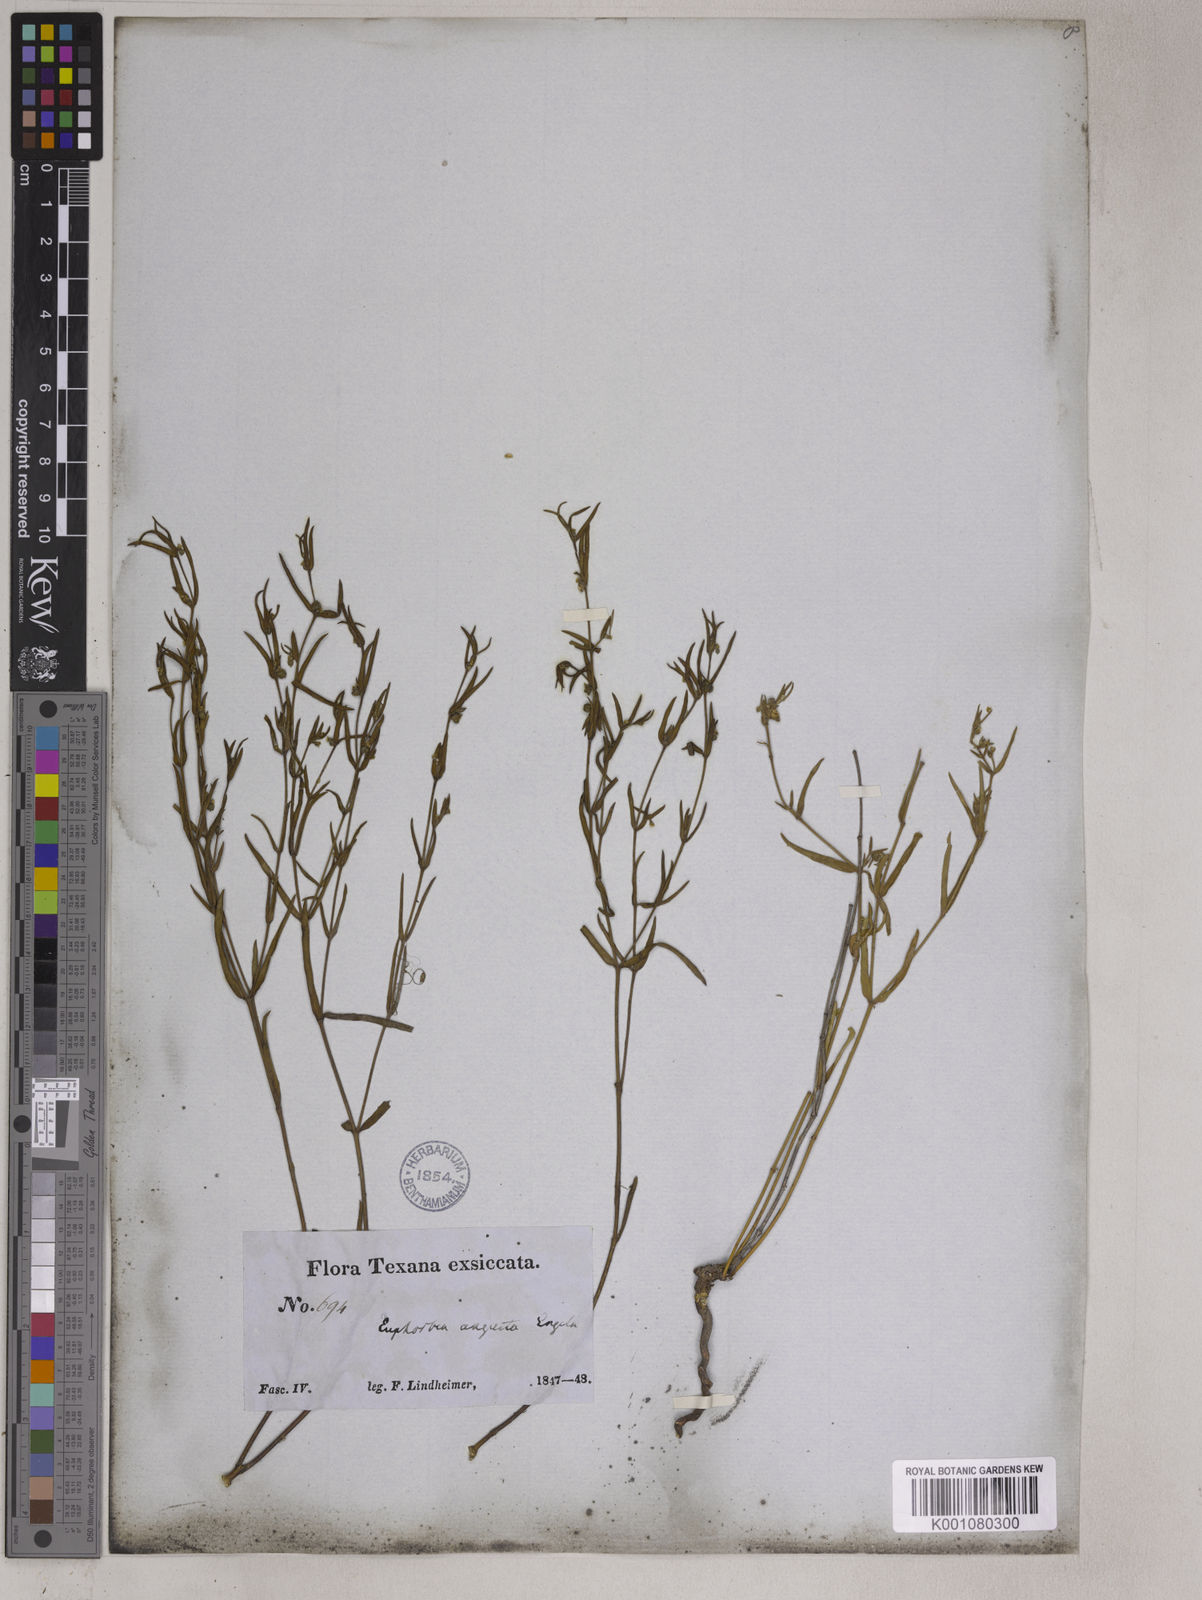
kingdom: Plantae
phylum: Tracheophyta
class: Magnoliopsida
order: Malpighiales
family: Euphorbiaceae
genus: Euphorbia
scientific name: Euphorbia angusta
